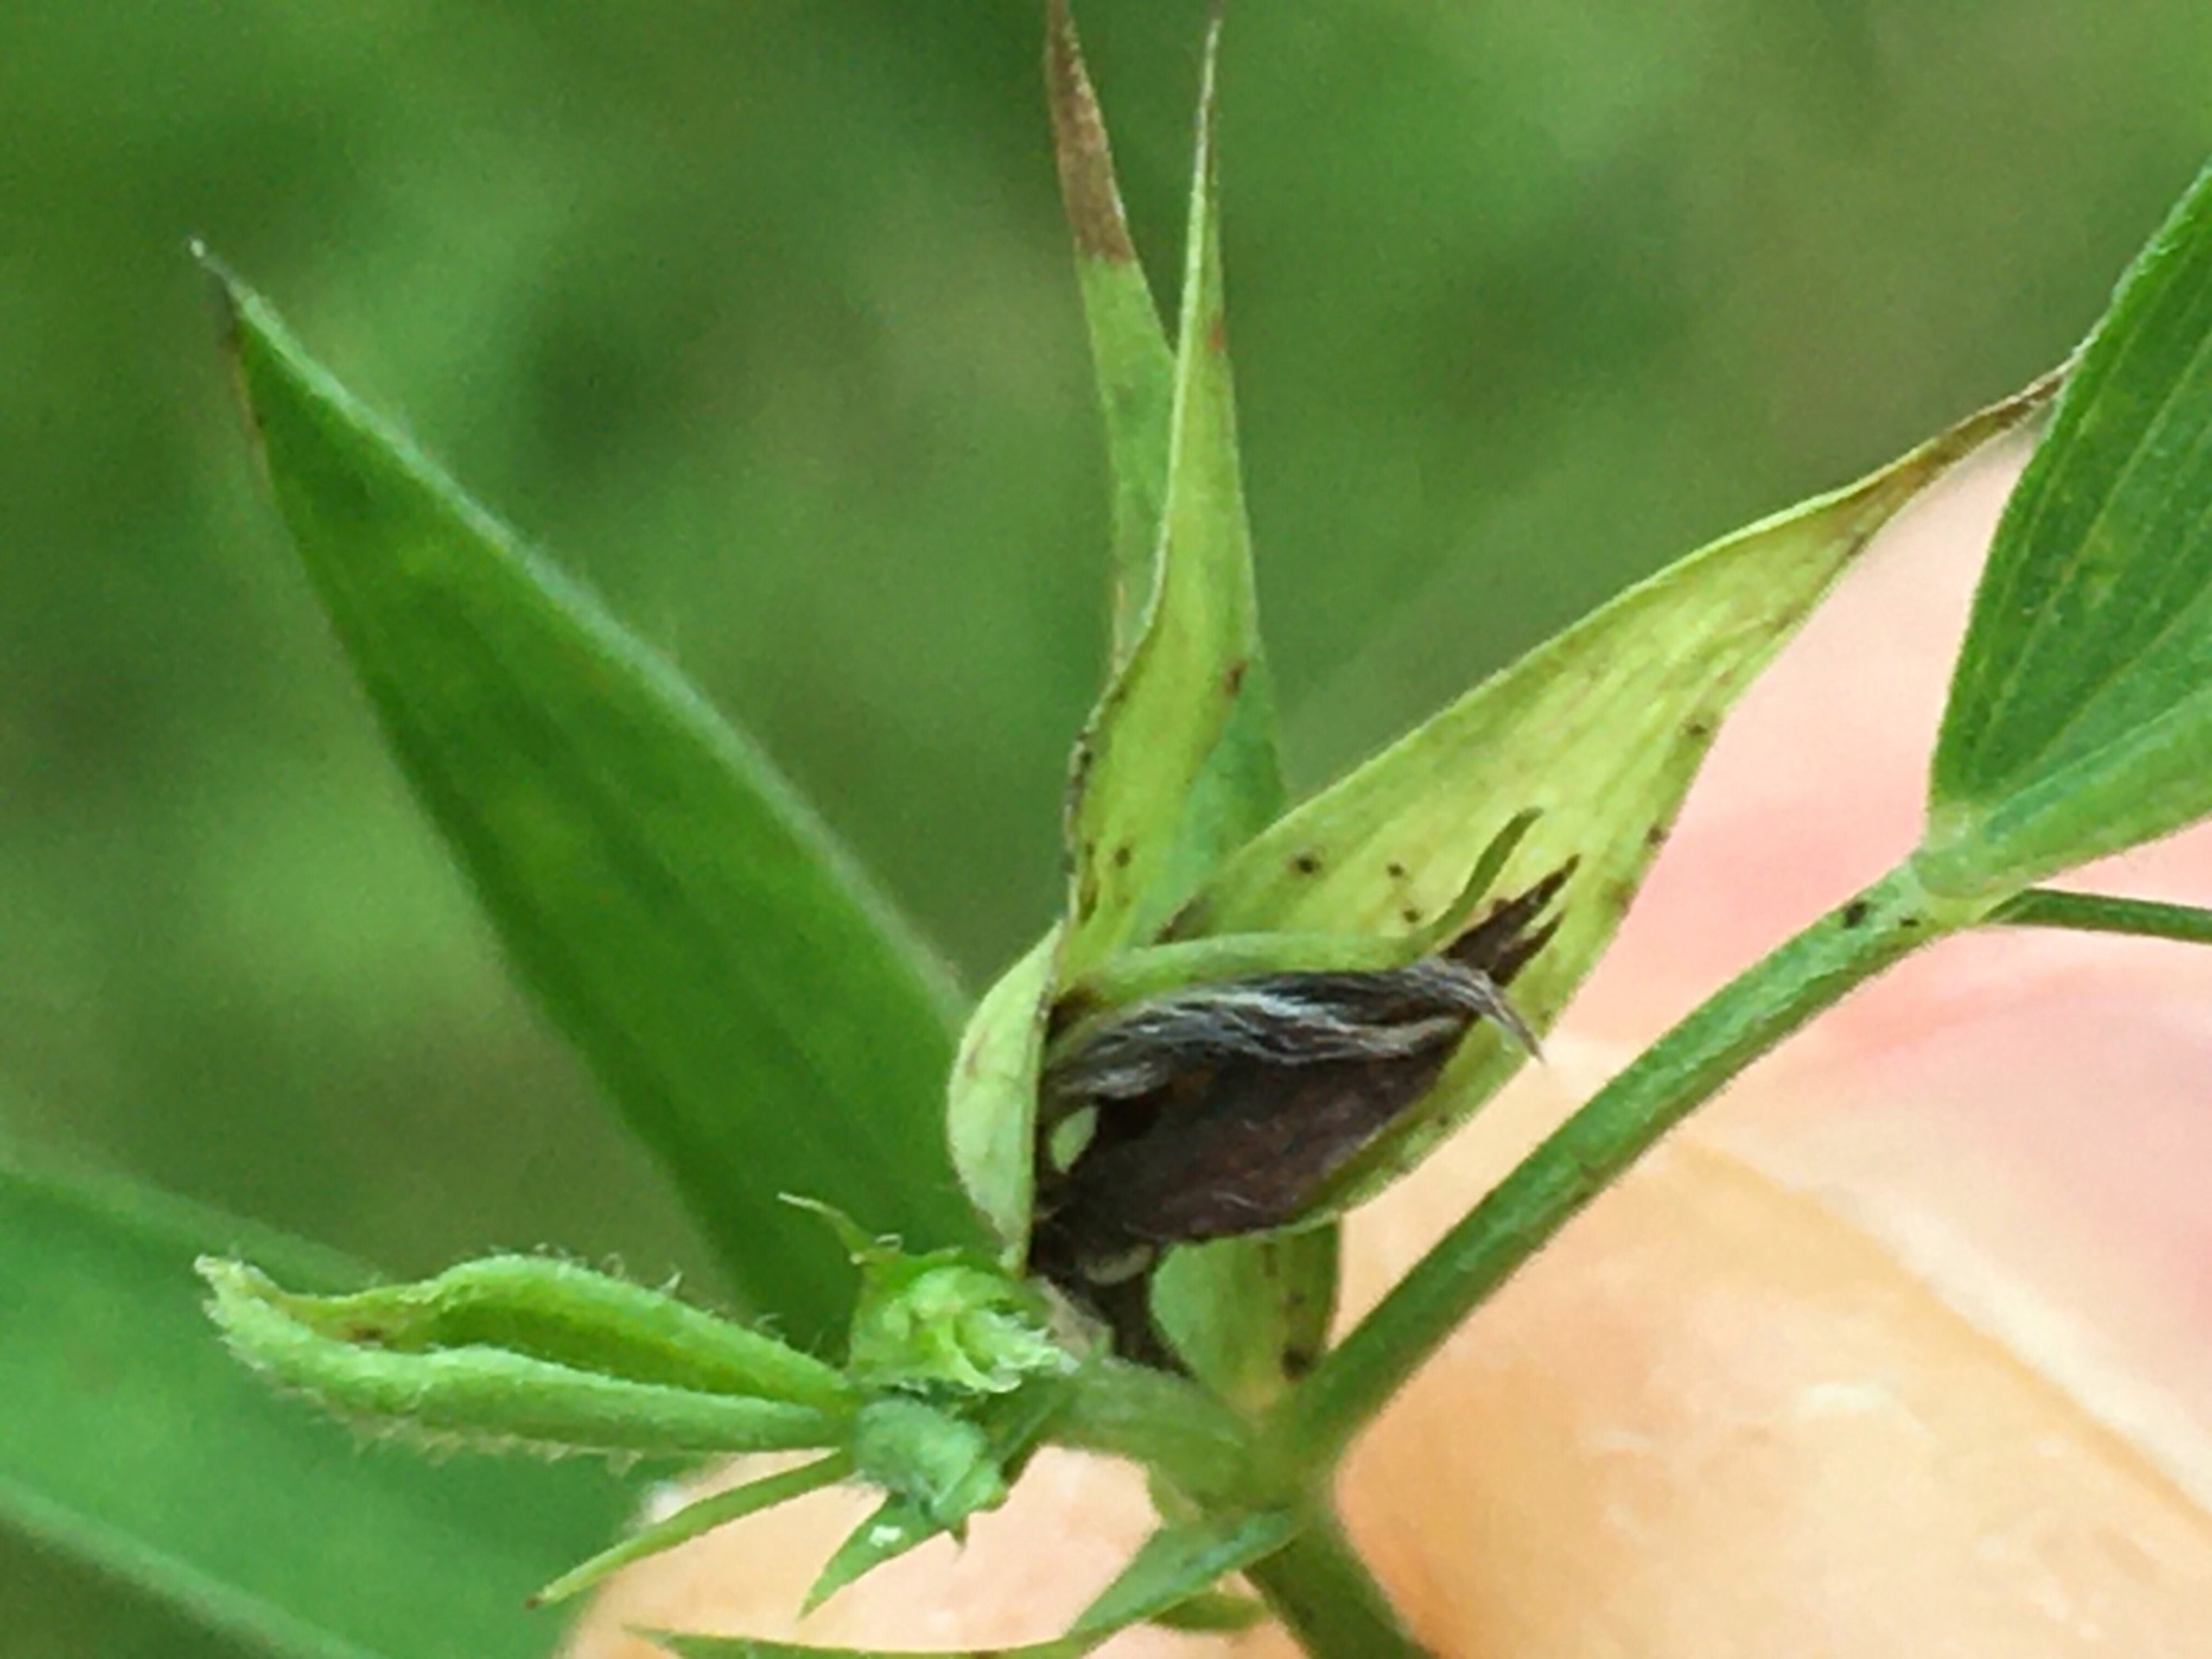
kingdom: Animalia
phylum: Arthropoda
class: Insecta
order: Diptera
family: Cecidomyiidae
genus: Dasineura
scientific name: Dasineura lathyricola
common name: Fodfliggalmyg
